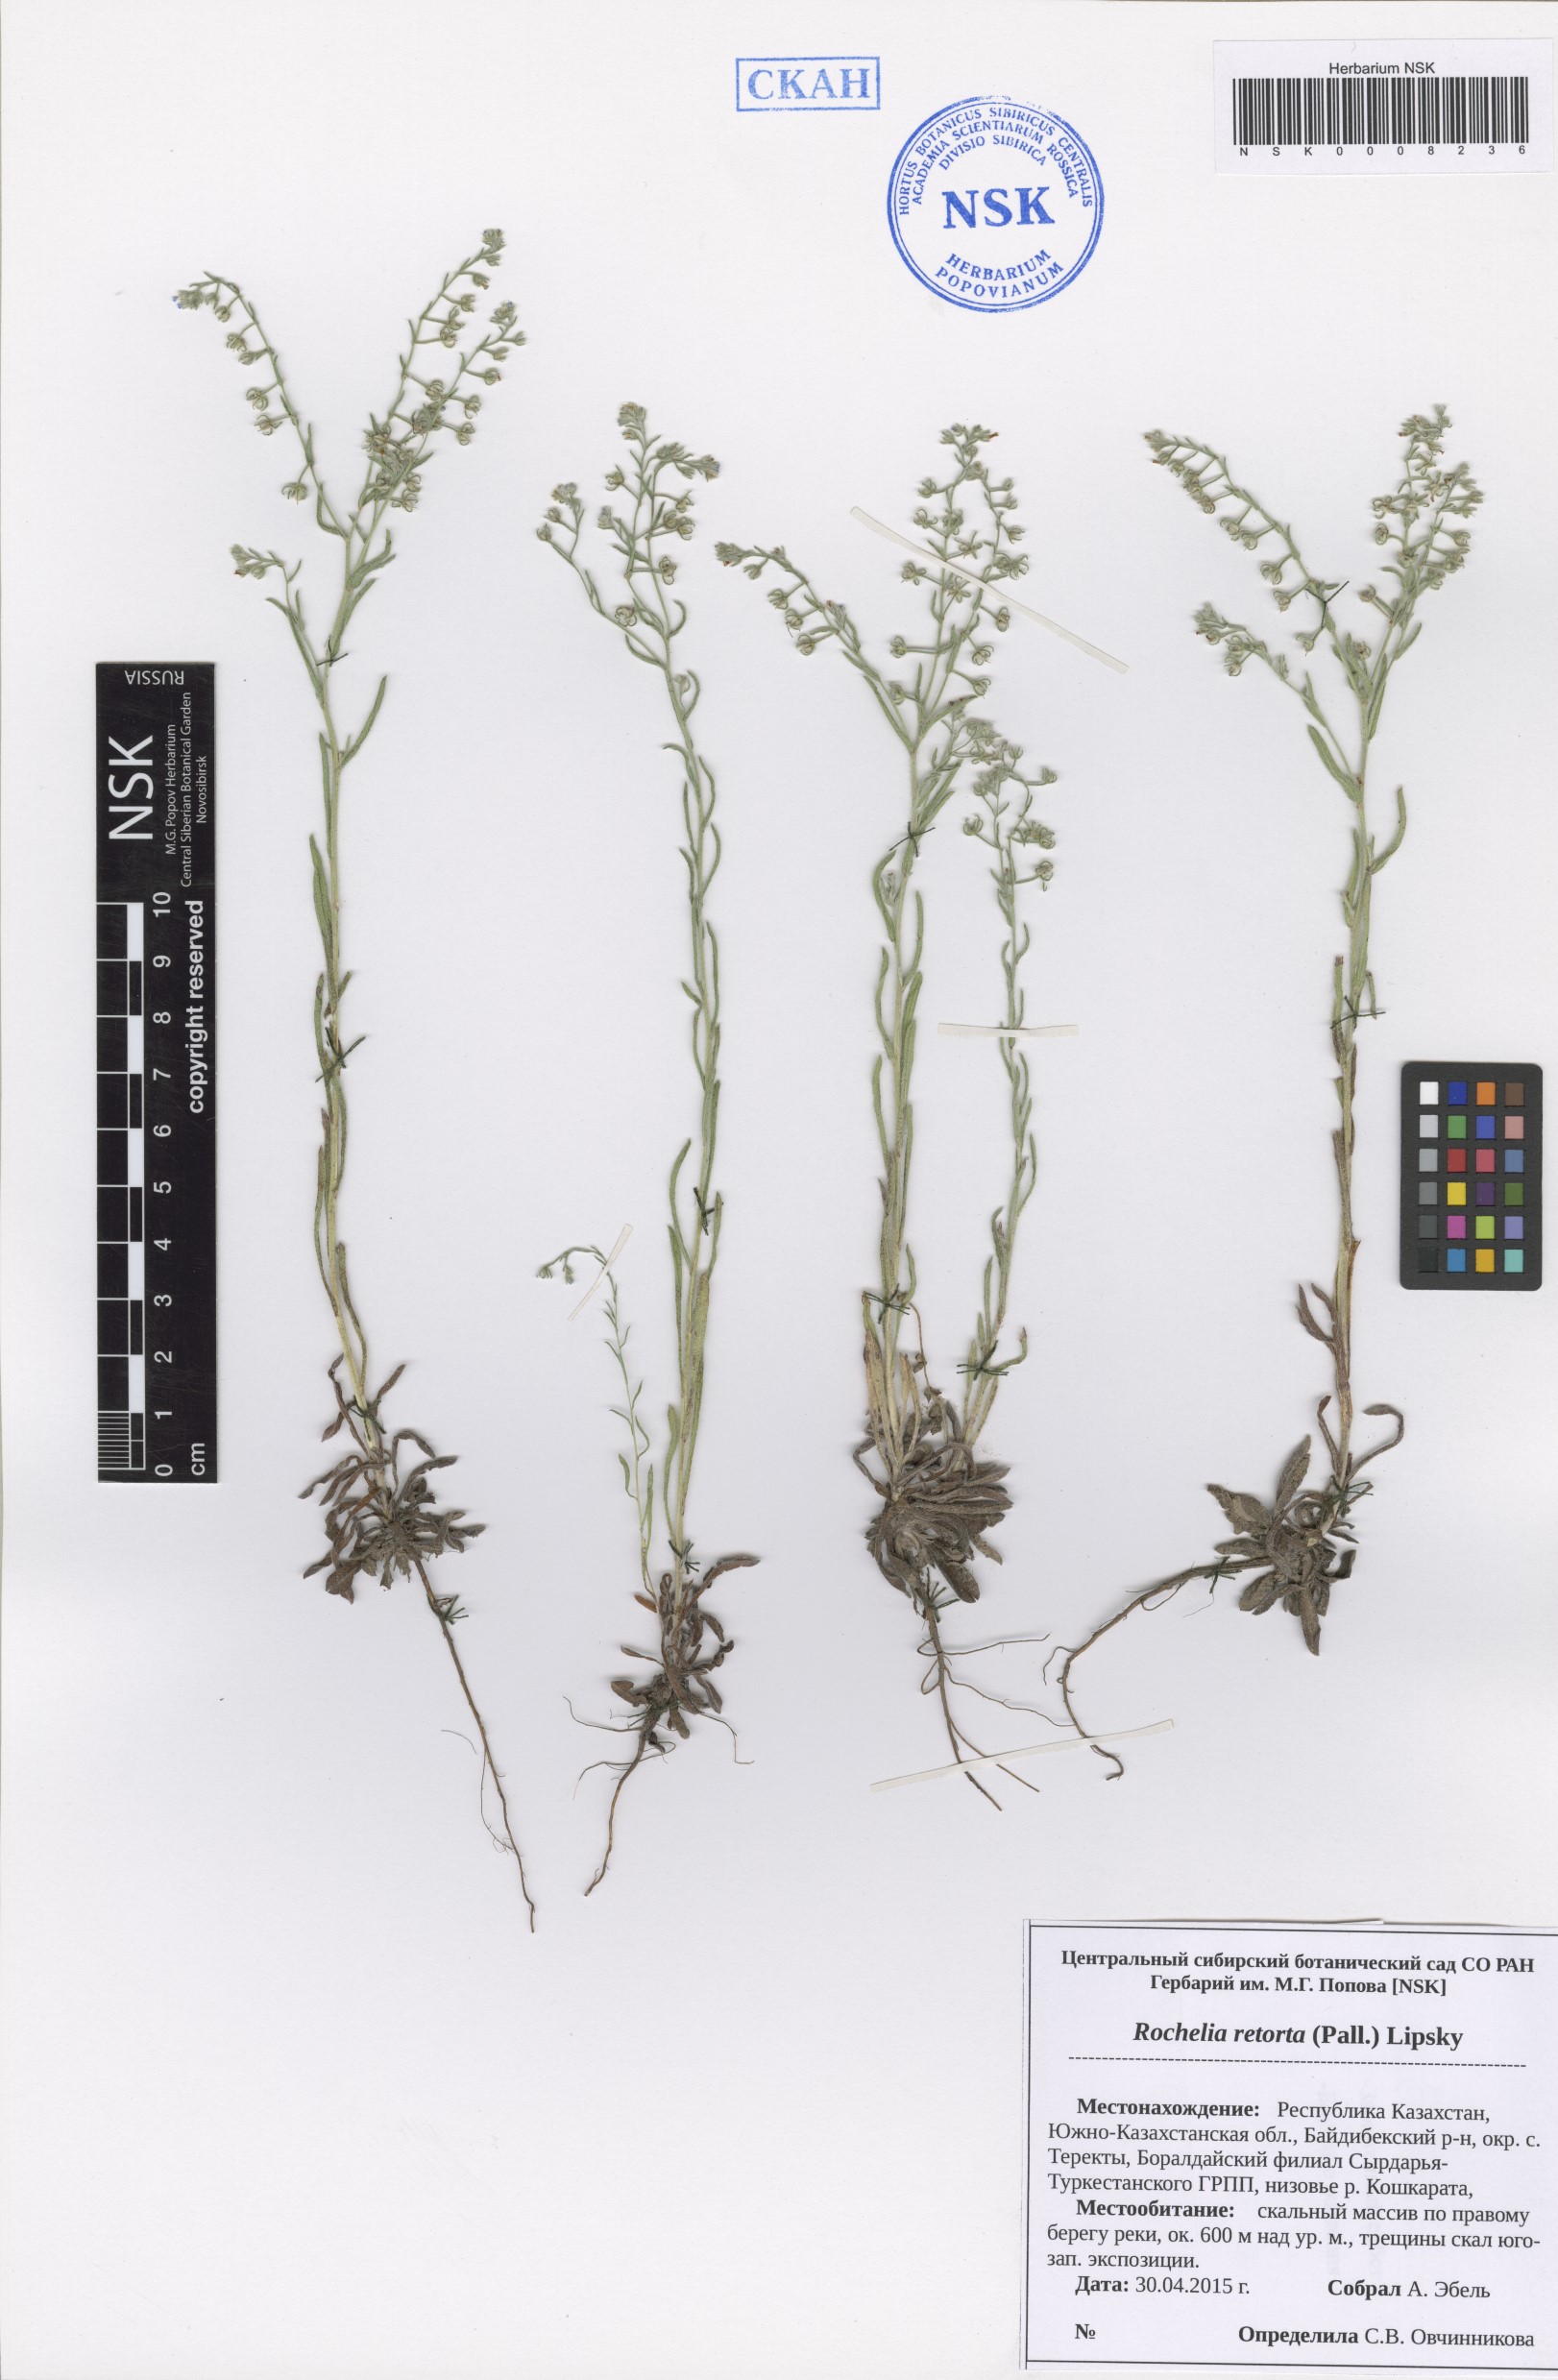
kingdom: Plantae
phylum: Tracheophyta
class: Magnoliopsida
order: Boraginales
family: Boraginaceae
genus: Rochelia
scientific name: Rochelia retorta
